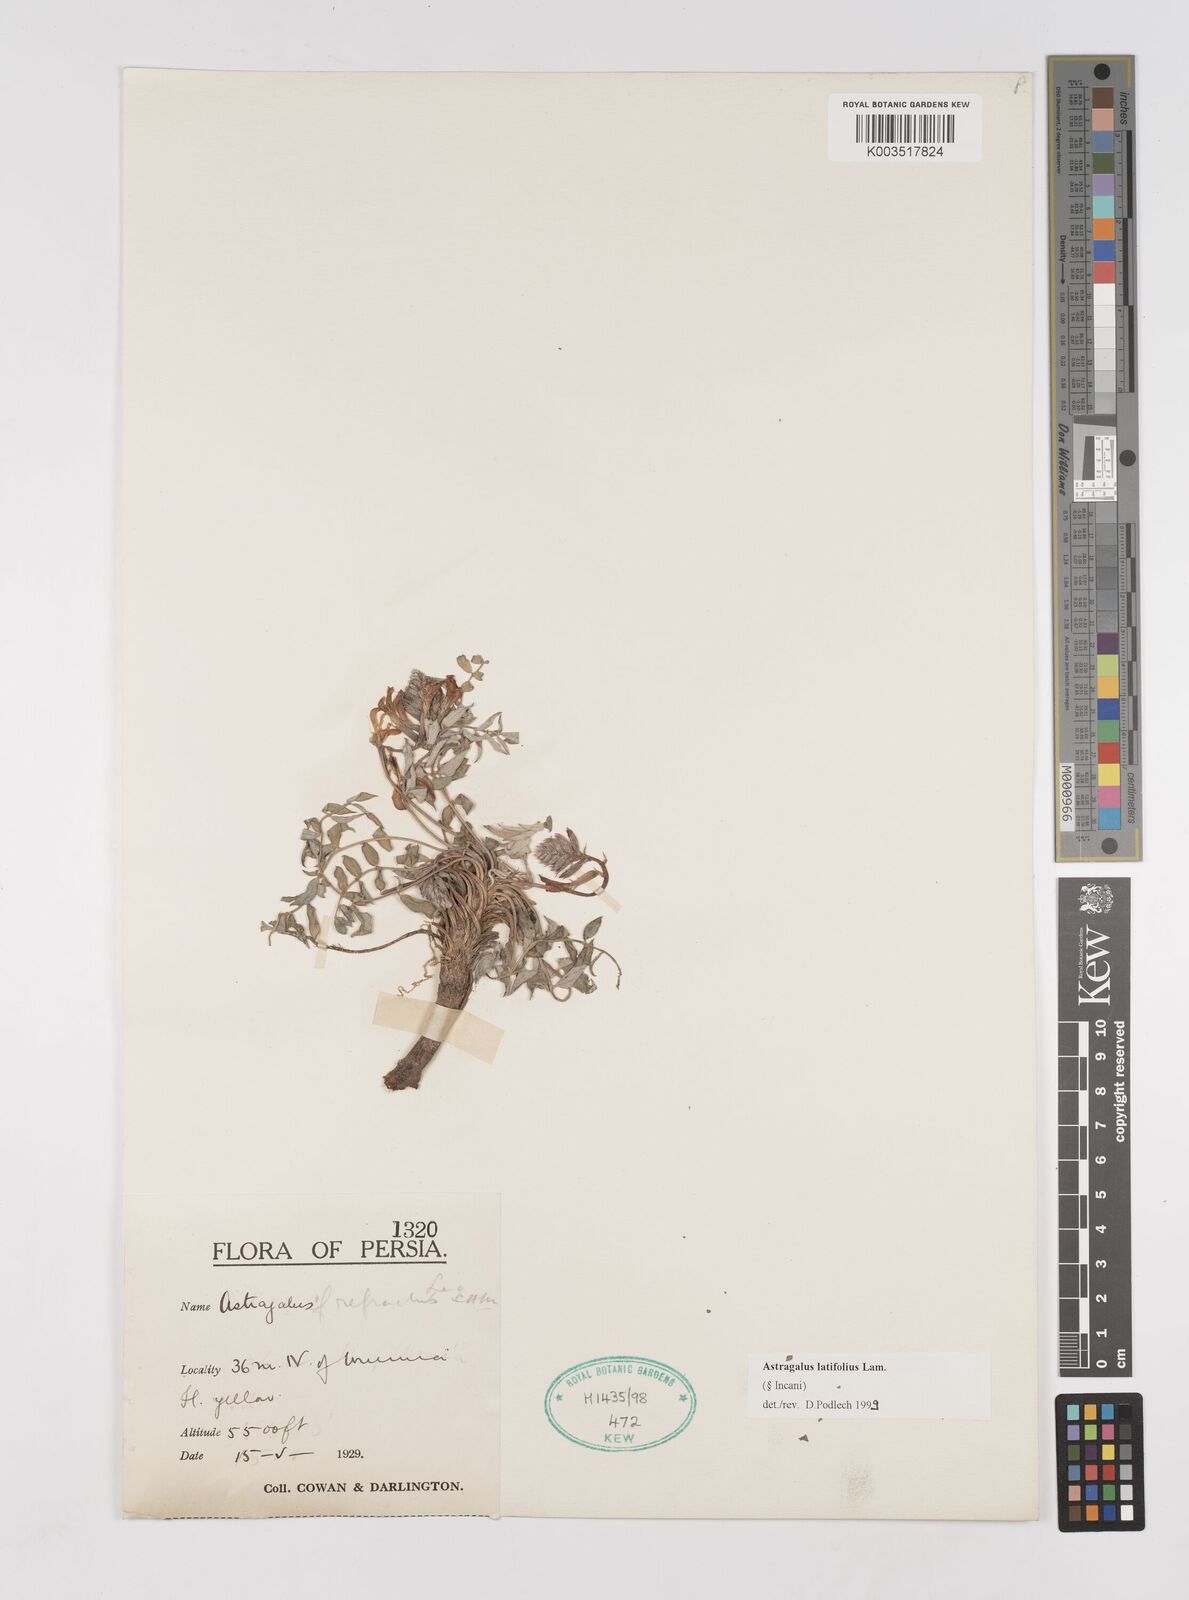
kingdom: Plantae
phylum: Tracheophyta
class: Magnoliopsida
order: Fabales
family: Fabaceae
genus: Astragalus
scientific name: Astragalus latifolius
